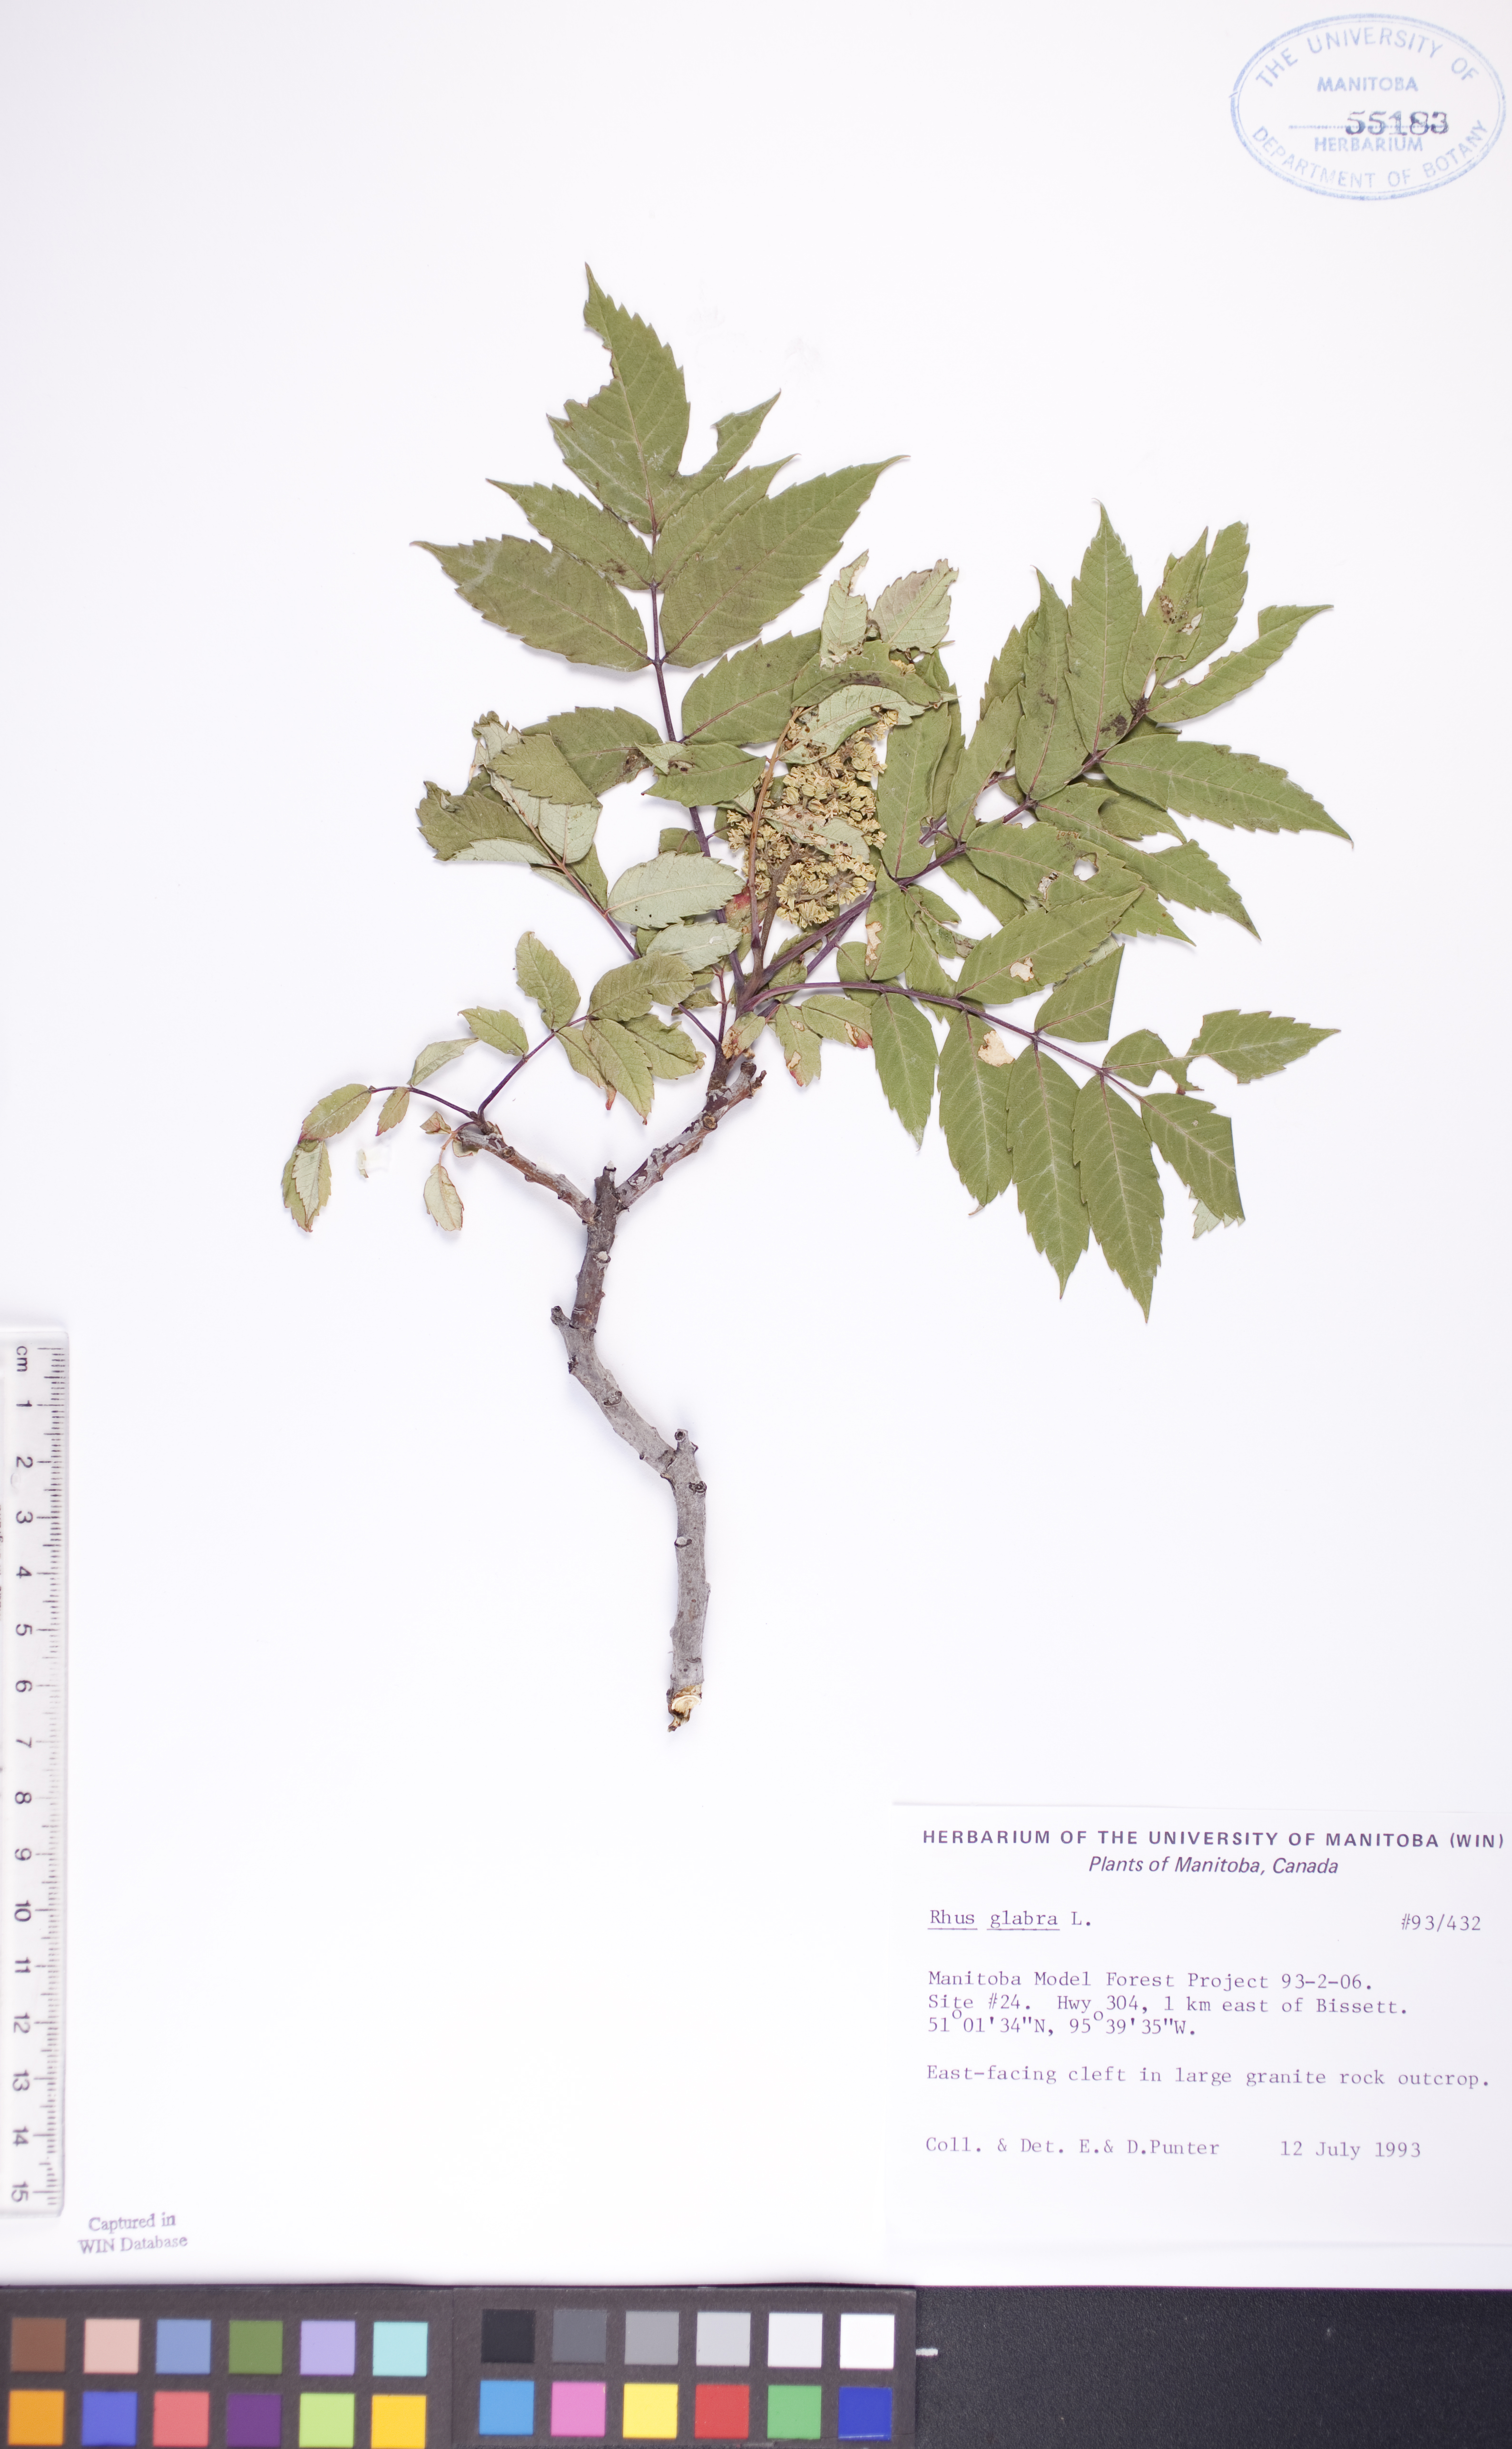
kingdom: Plantae
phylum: Tracheophyta
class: Magnoliopsida
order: Sapindales
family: Anacardiaceae
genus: Rhus
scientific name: Rhus glabra
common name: Scarlet sumac
